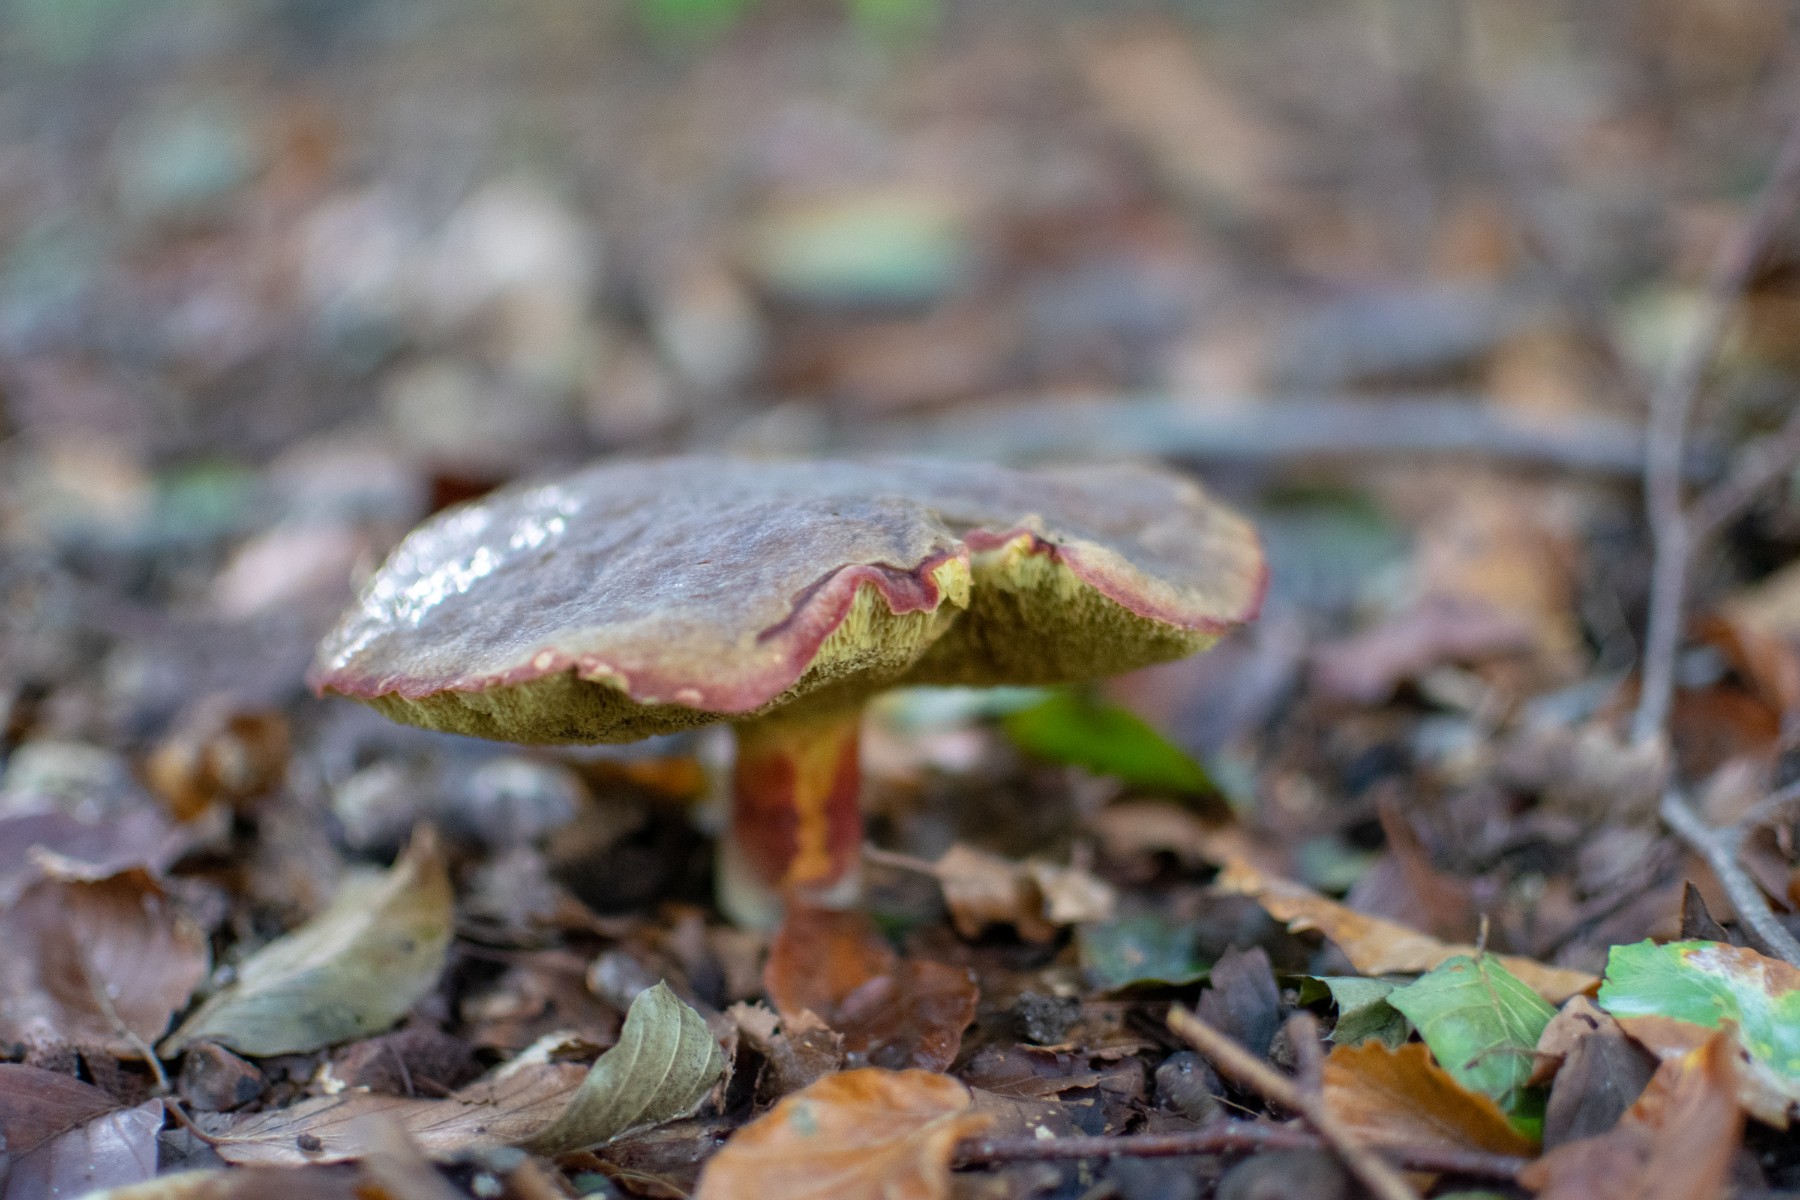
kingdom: Fungi
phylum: Basidiomycota
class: Agaricomycetes
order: Boletales
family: Boletaceae
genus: Xerocomellus
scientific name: Xerocomellus pruinatus
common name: dugget rørhat
